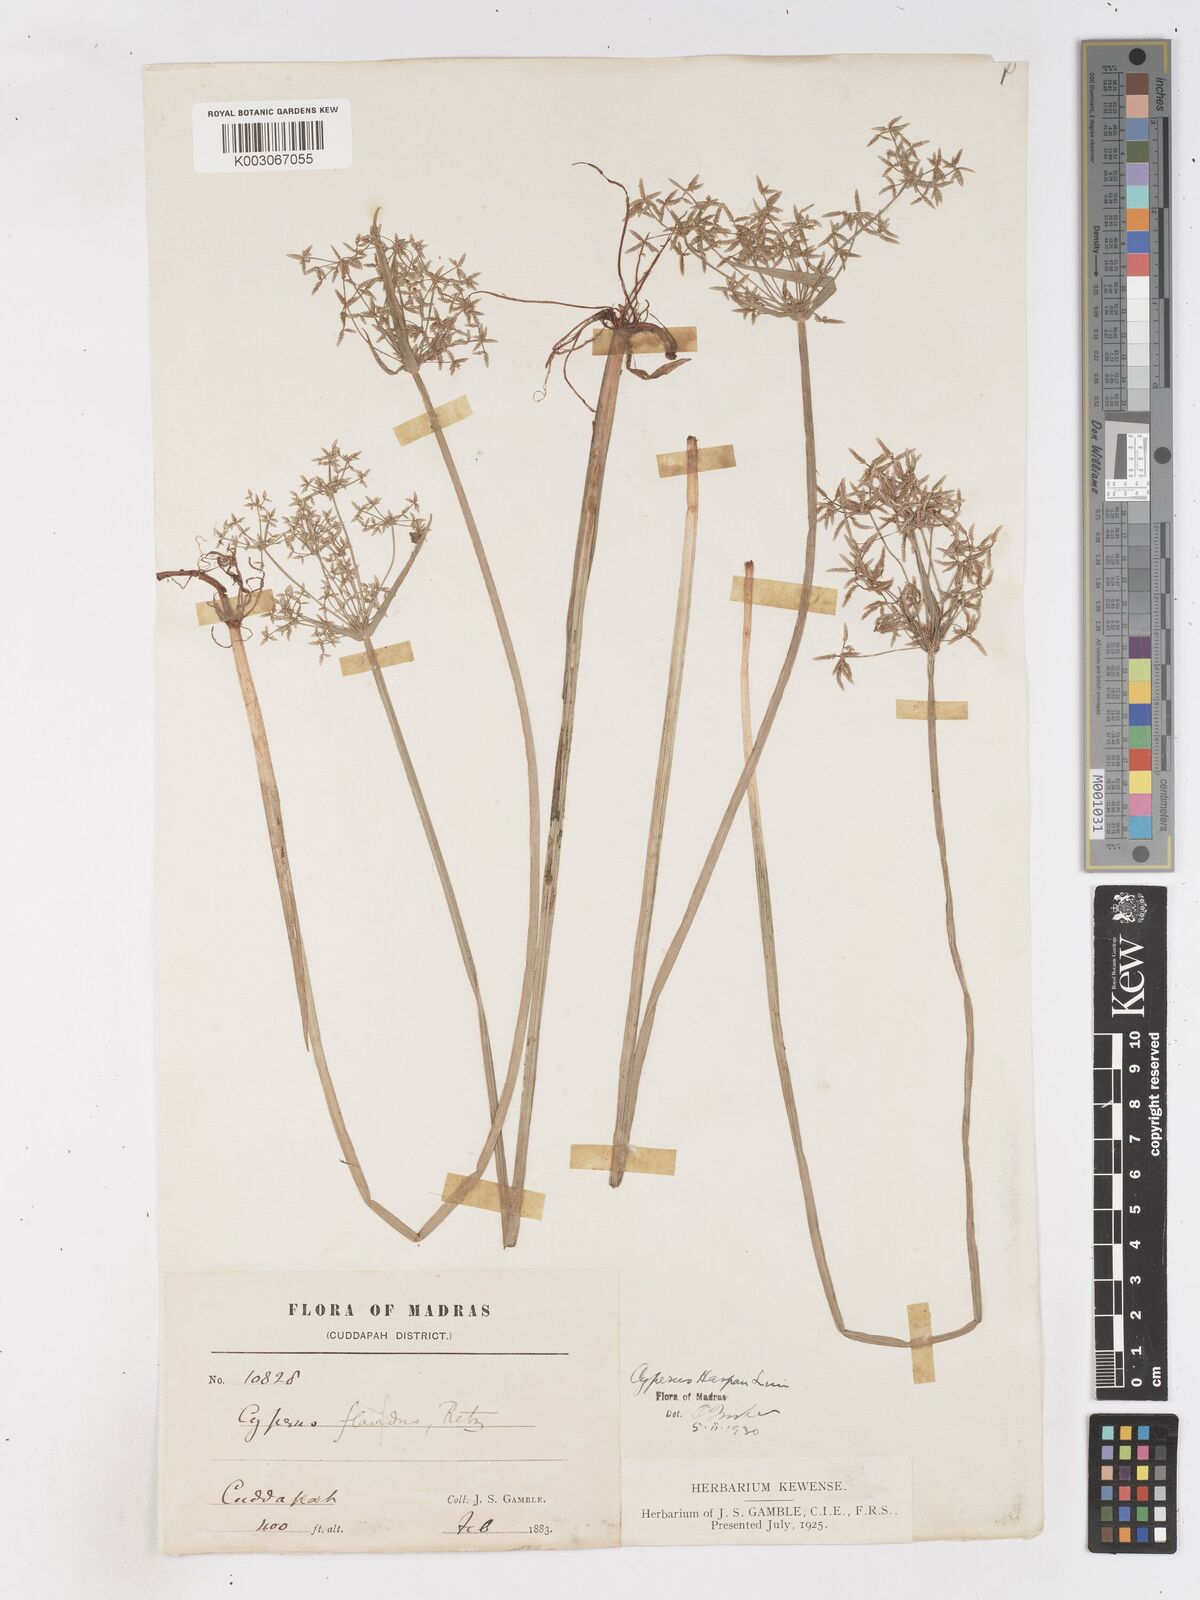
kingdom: Plantae
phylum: Tracheophyta
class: Liliopsida
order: Poales
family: Cyperaceae
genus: Cyperus
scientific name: Cyperus haspan
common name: Haspan flatsedge
